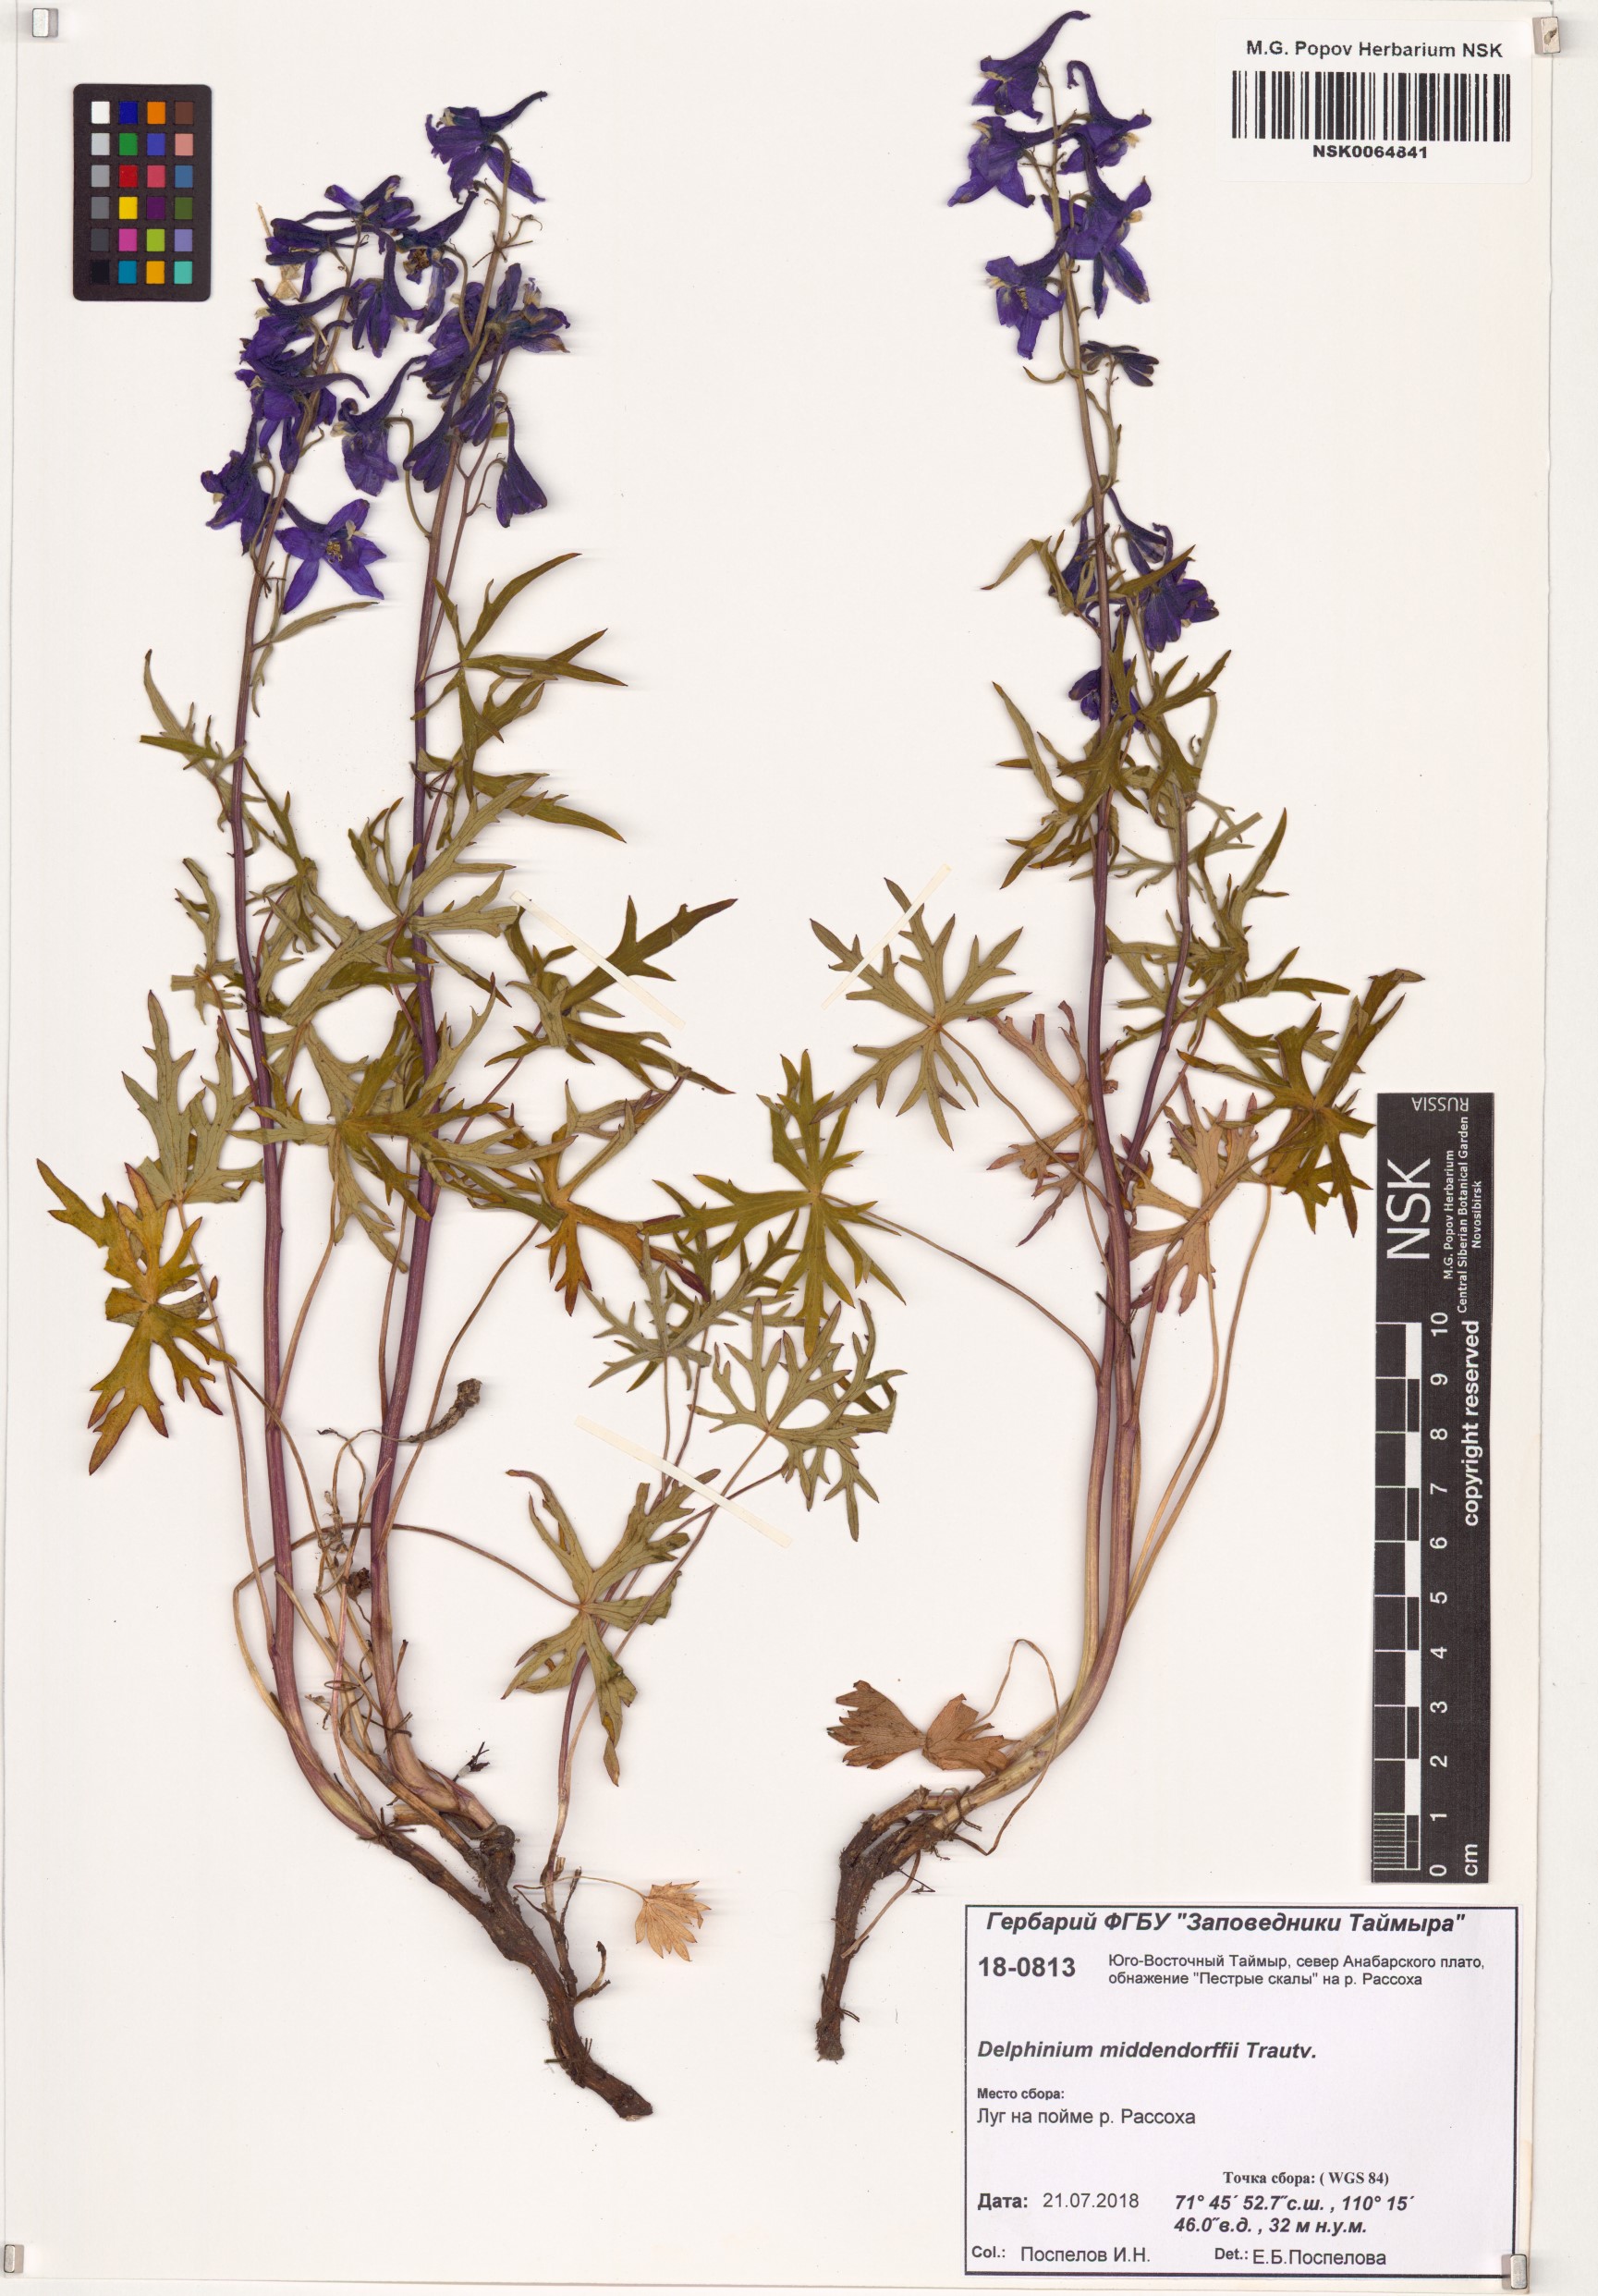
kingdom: Plantae
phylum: Tracheophyta
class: Magnoliopsida
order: Ranunculales
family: Ranunculaceae
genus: Delphinium
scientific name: Delphinium cheilanthum
